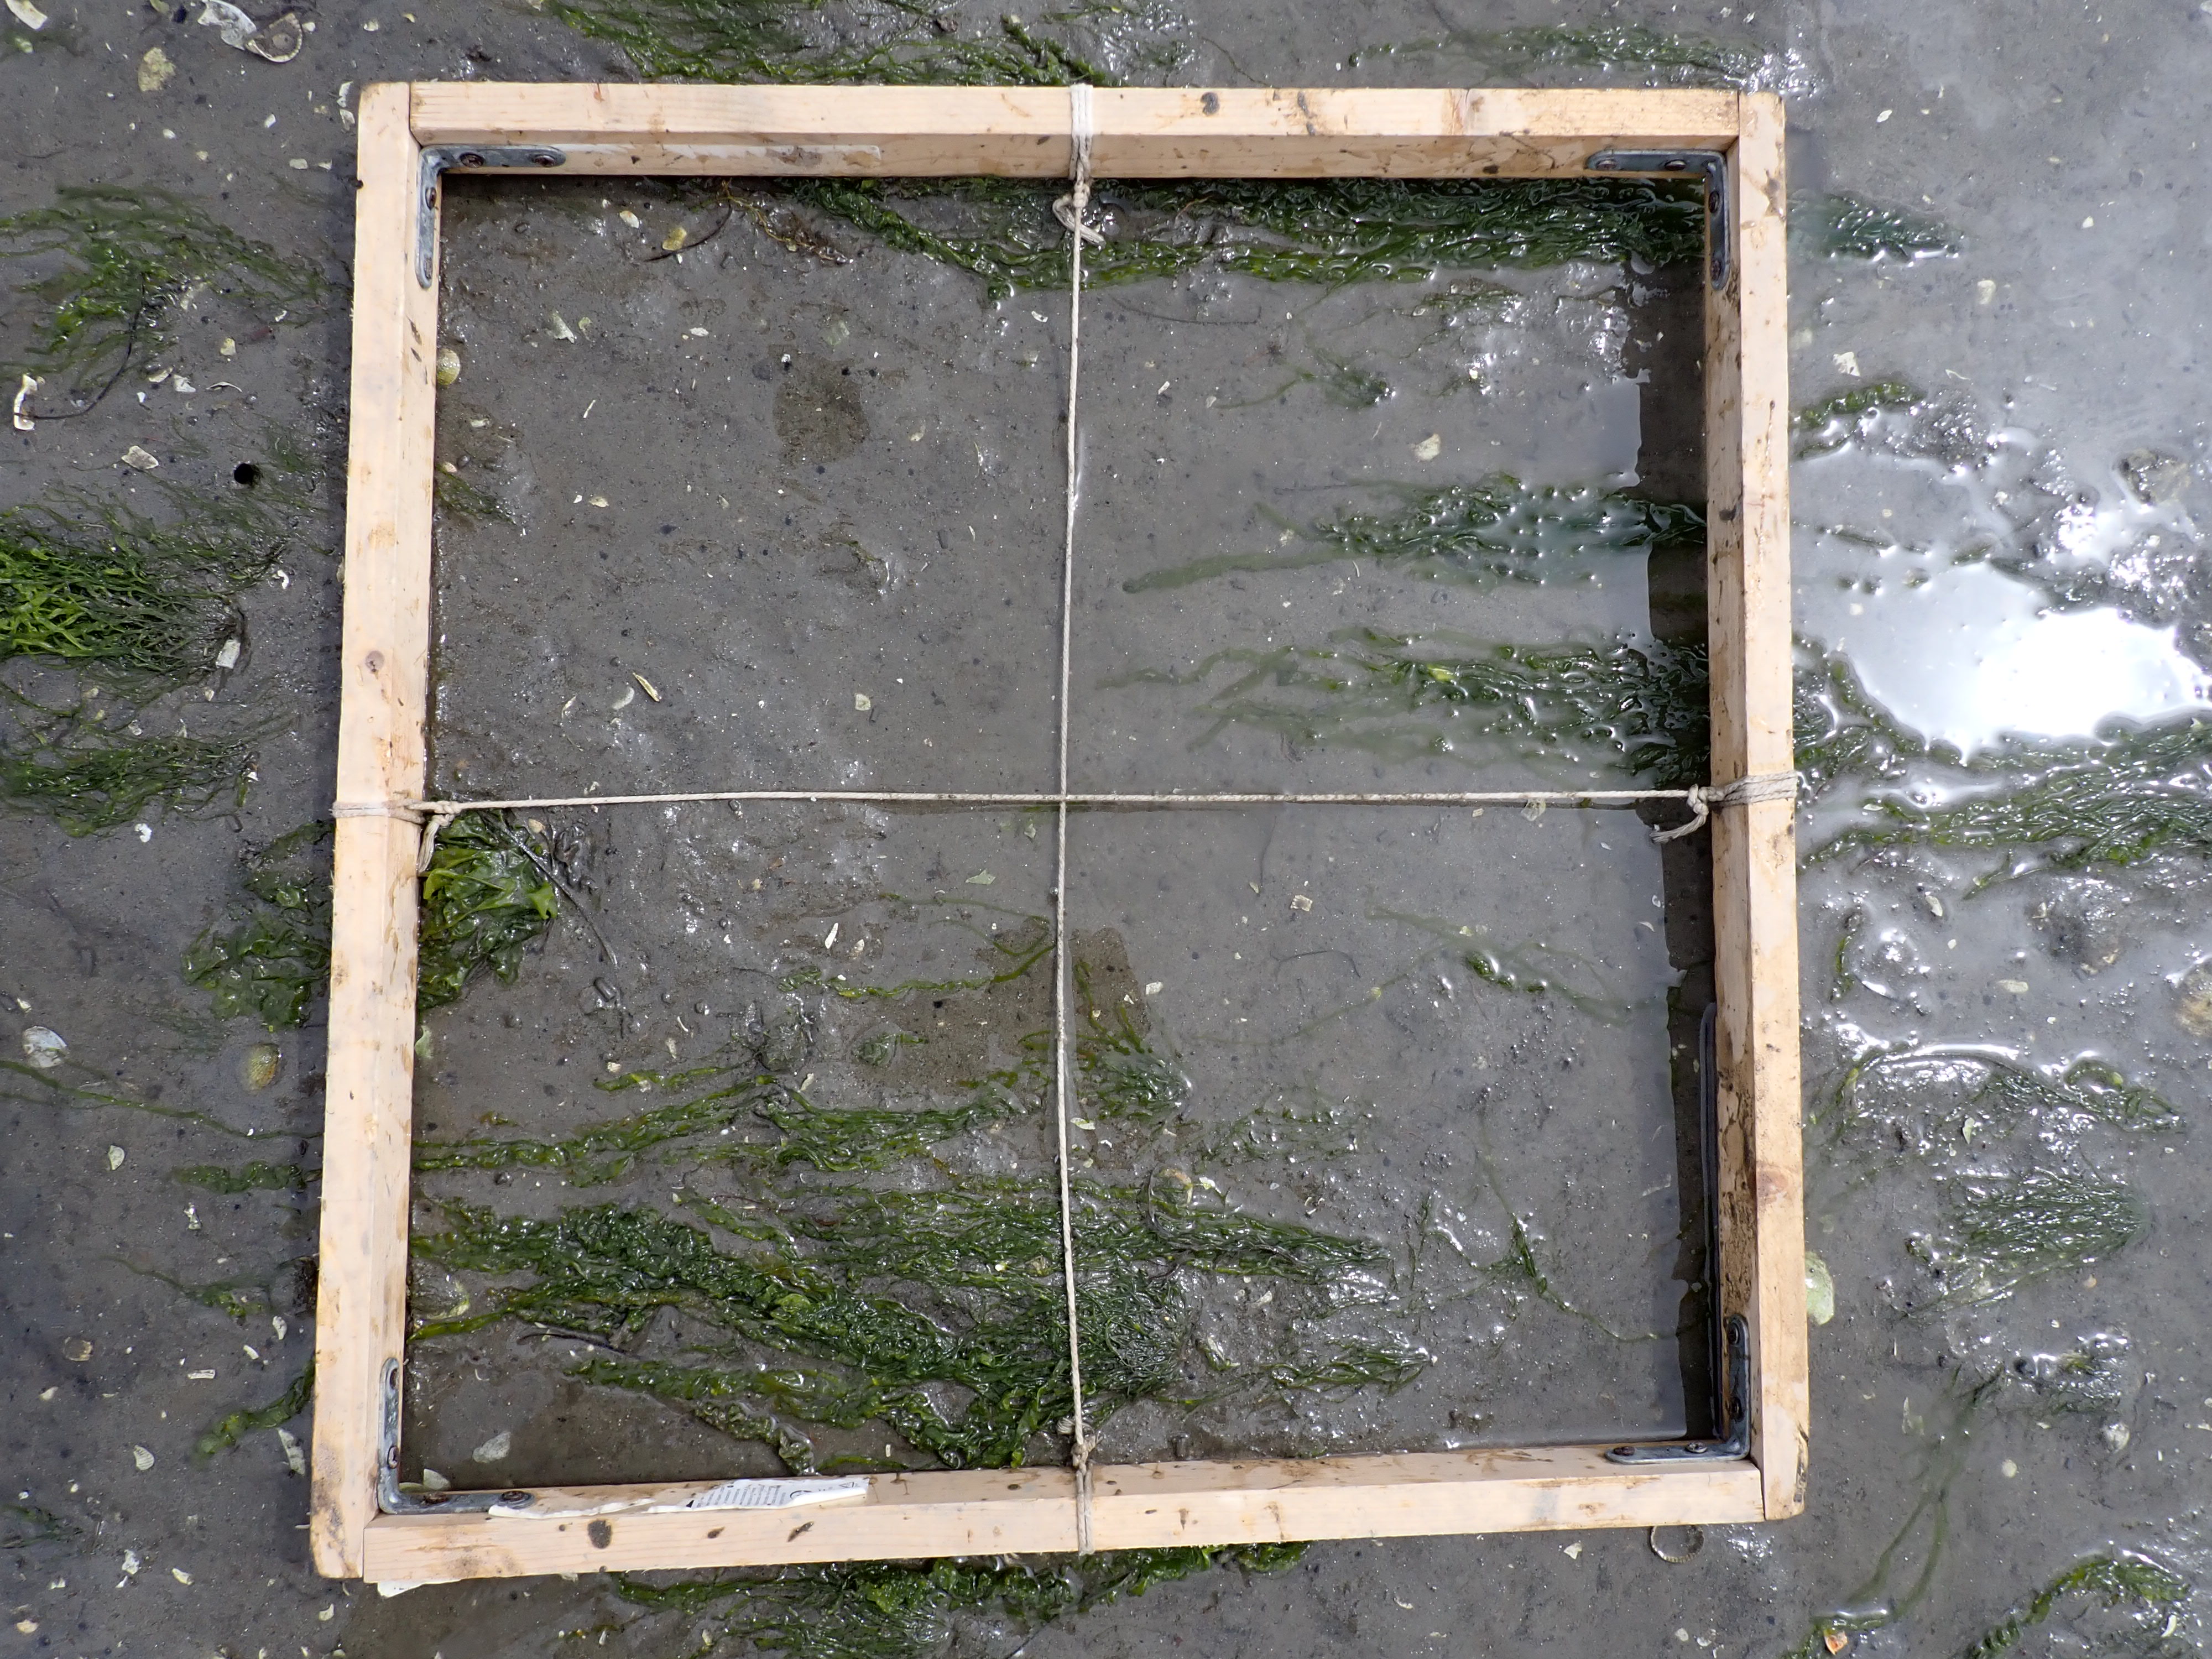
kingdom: Plantae
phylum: Chlorophyta
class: Ulvophyceae
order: Ulvales
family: Ulvaceae
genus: Ulva
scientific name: Ulva
